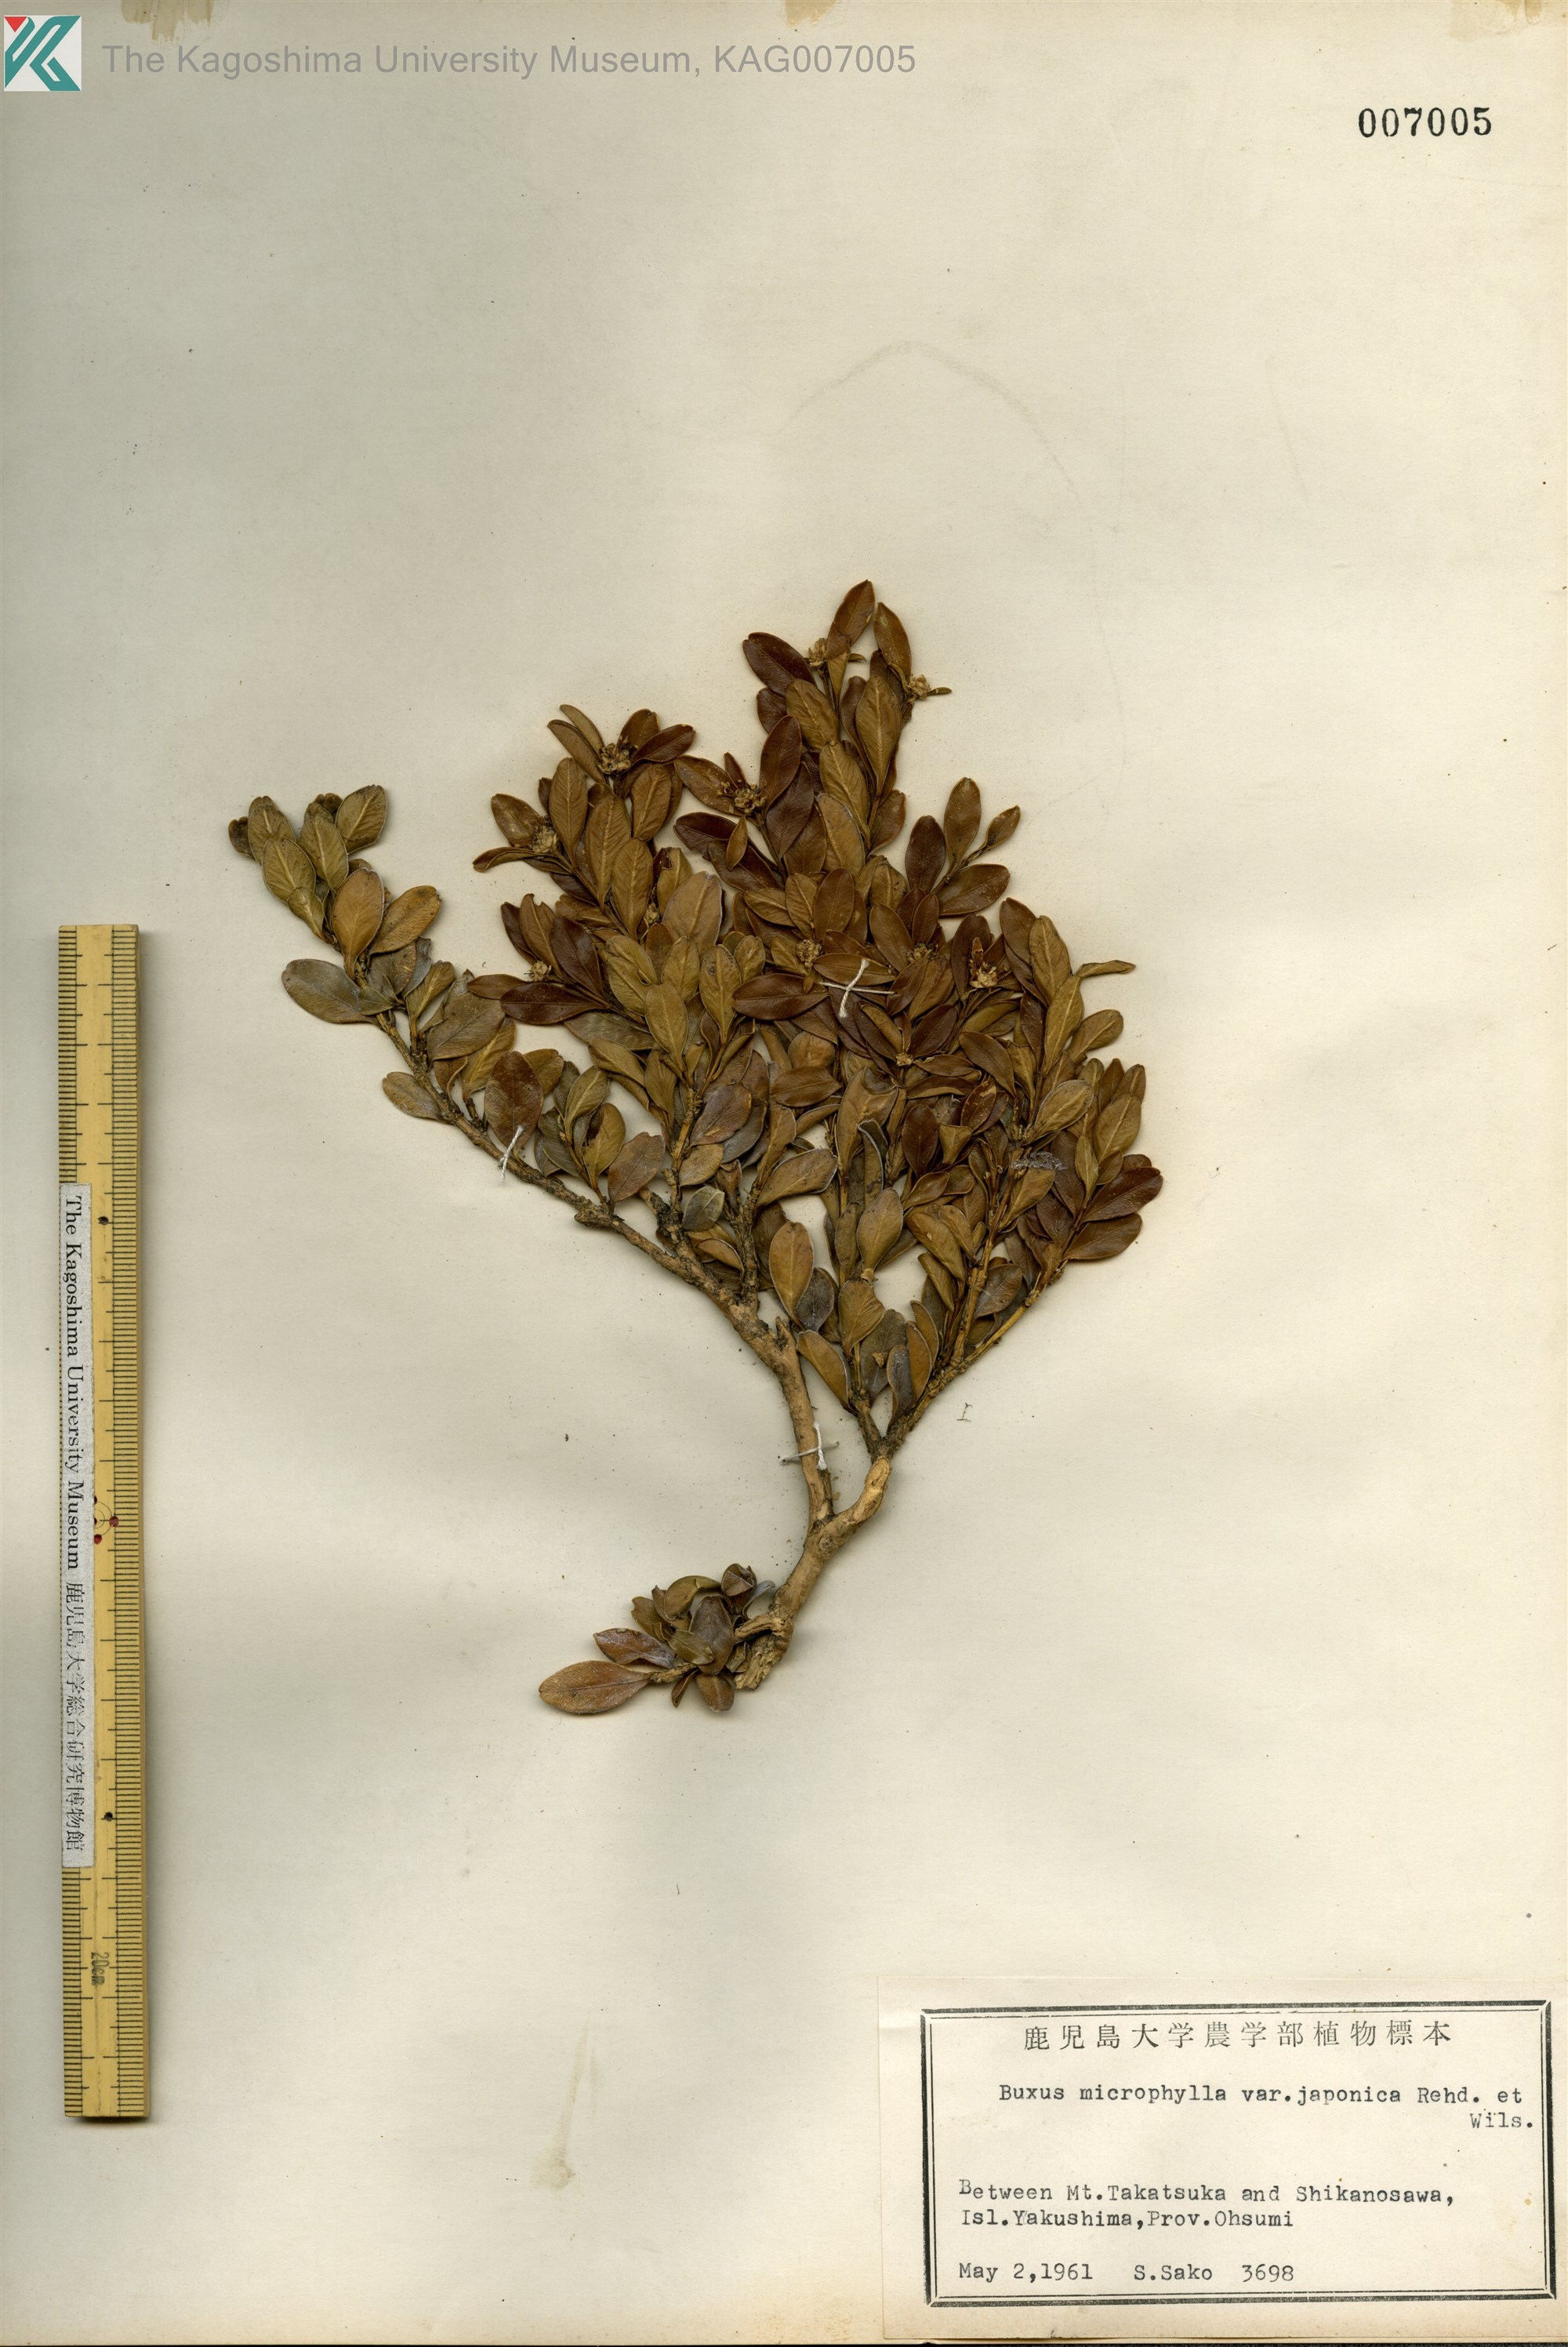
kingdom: Plantae
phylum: Tracheophyta
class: Magnoliopsida
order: Buxales
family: Buxaceae
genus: Buxus
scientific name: Buxus microphylla
